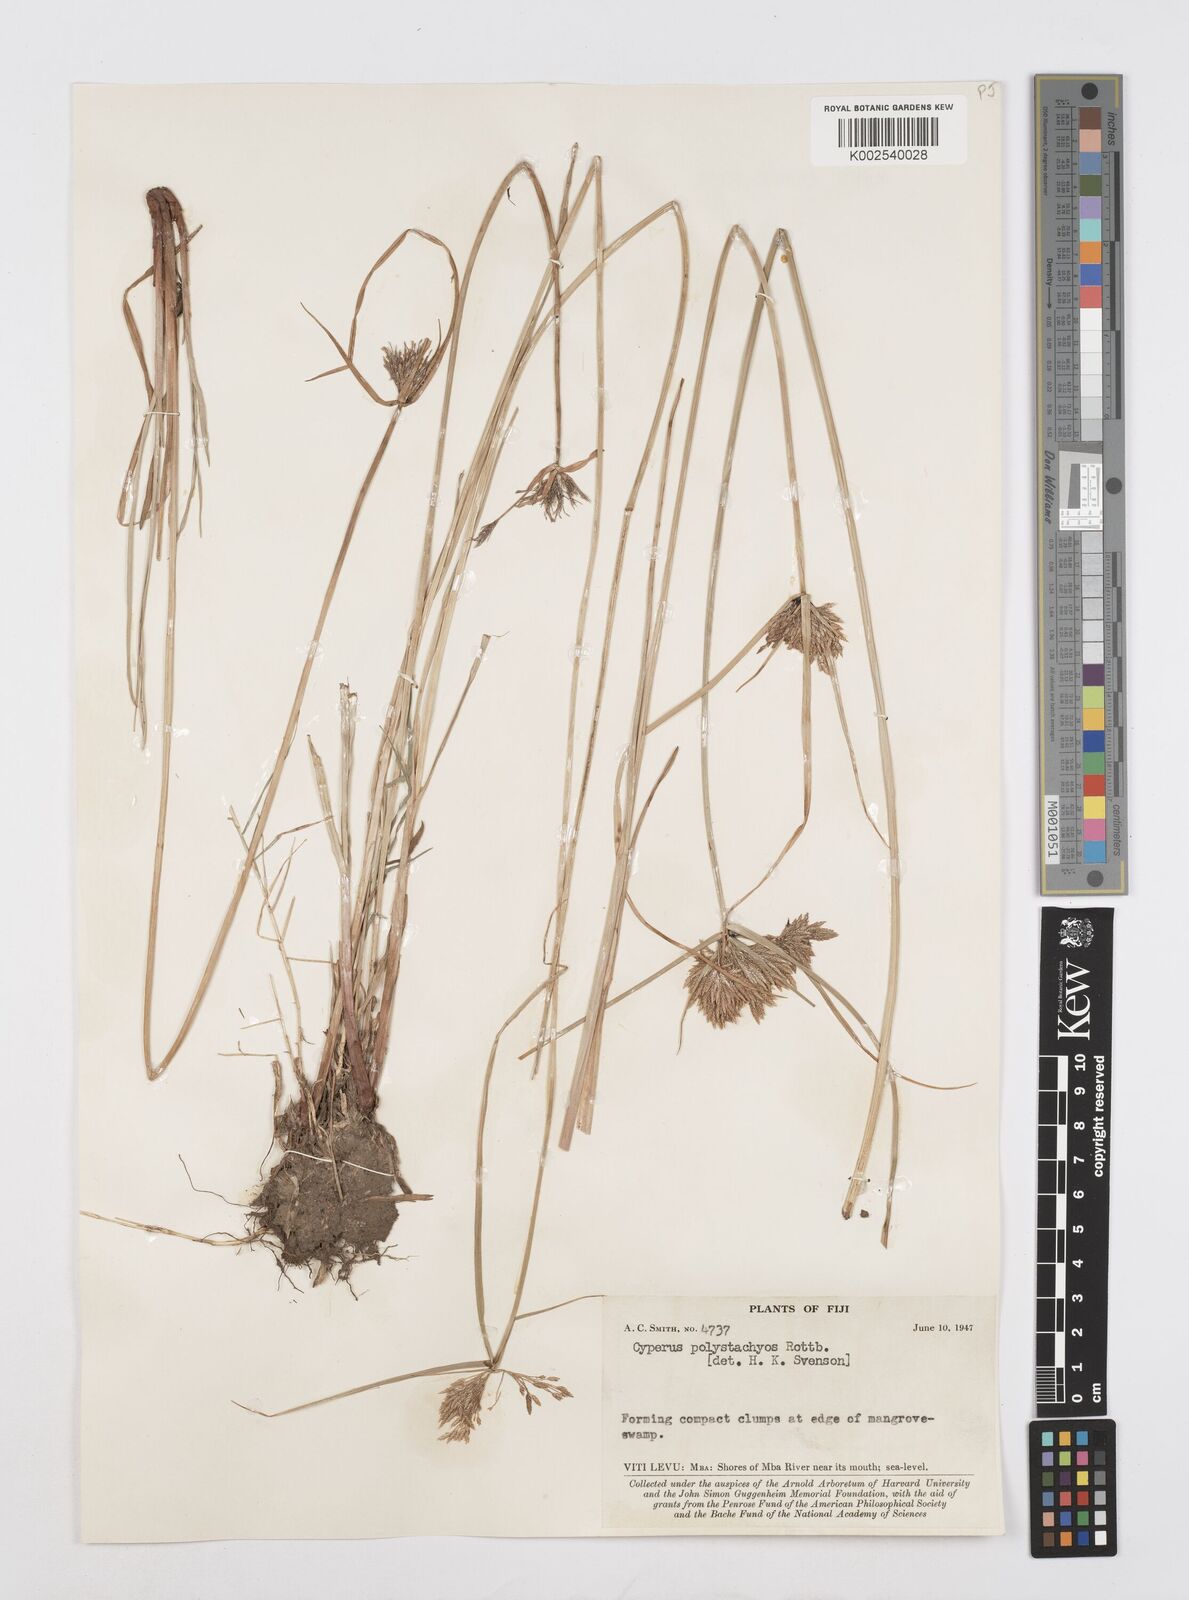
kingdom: Plantae
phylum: Tracheophyta
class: Liliopsida
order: Poales
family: Cyperaceae
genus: Cyperus
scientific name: Cyperus polystachyos
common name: Bunchy flat sedge
